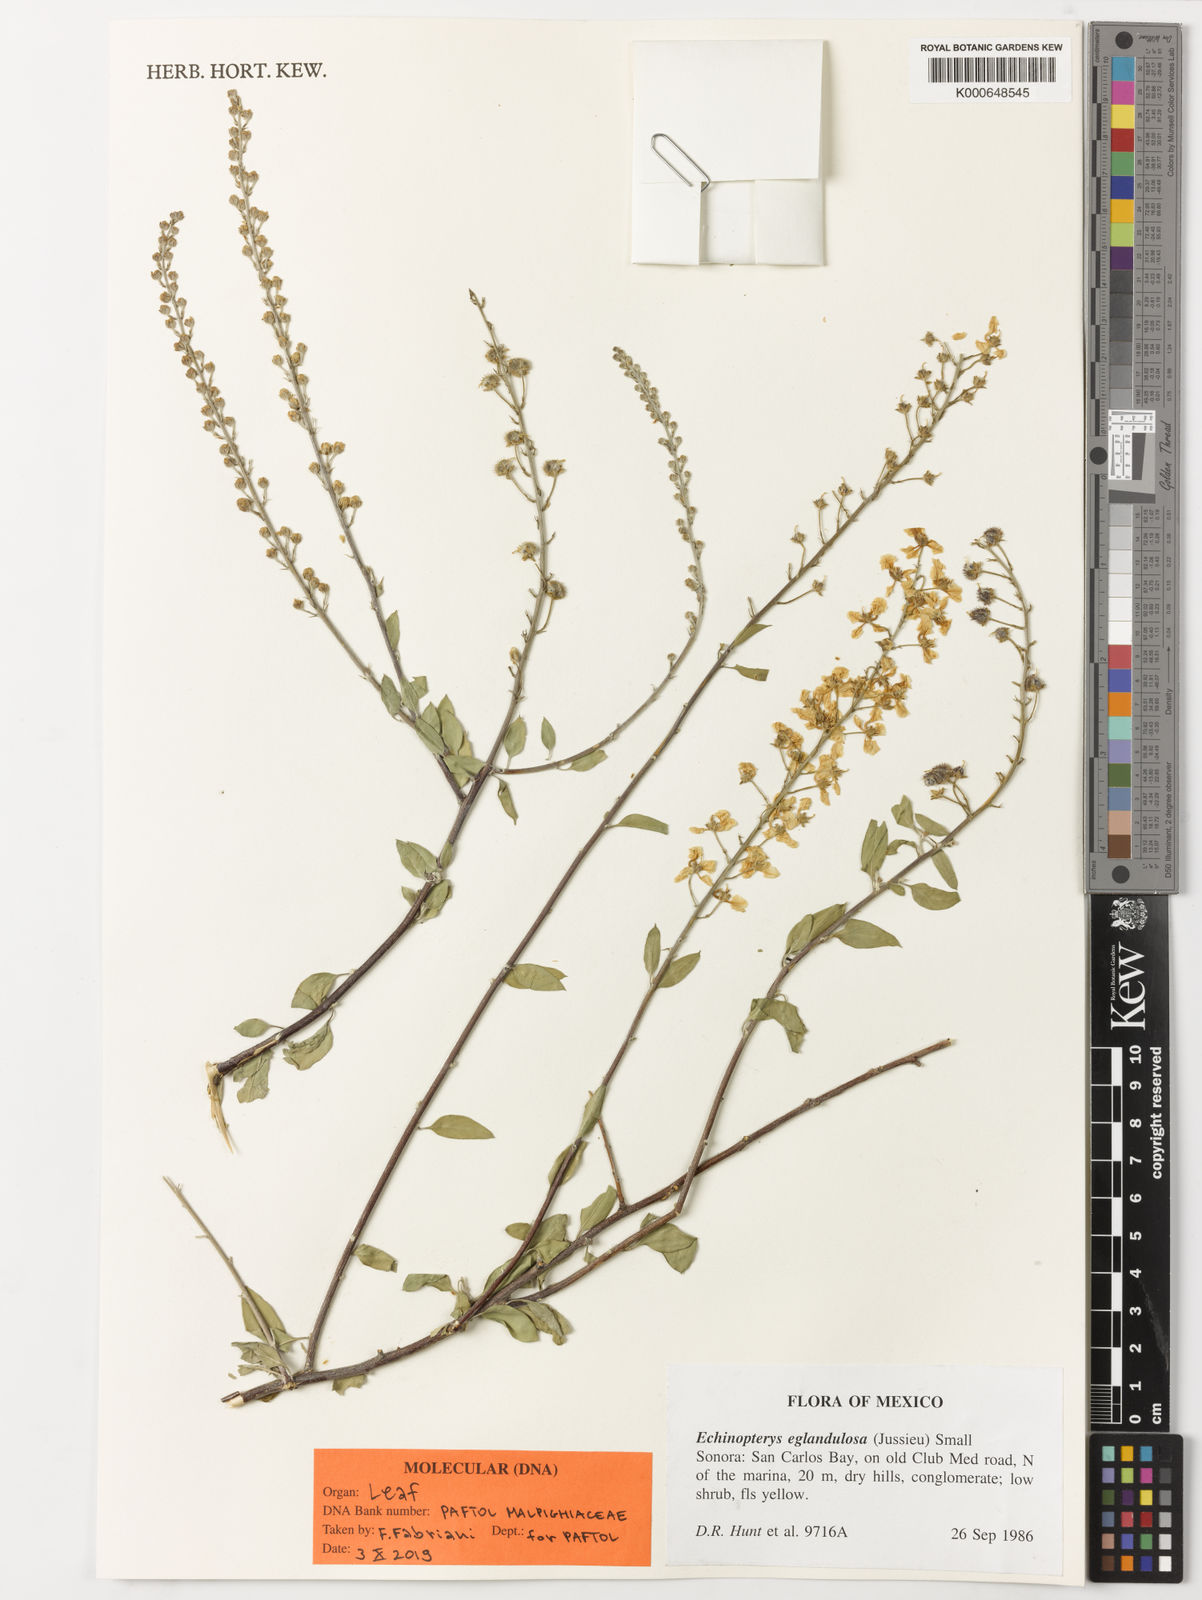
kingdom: Plantae
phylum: Tracheophyta
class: Magnoliopsida
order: Malpighiales
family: Malpighiaceae
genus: Echinopterys
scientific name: Echinopterys eglandulosa
